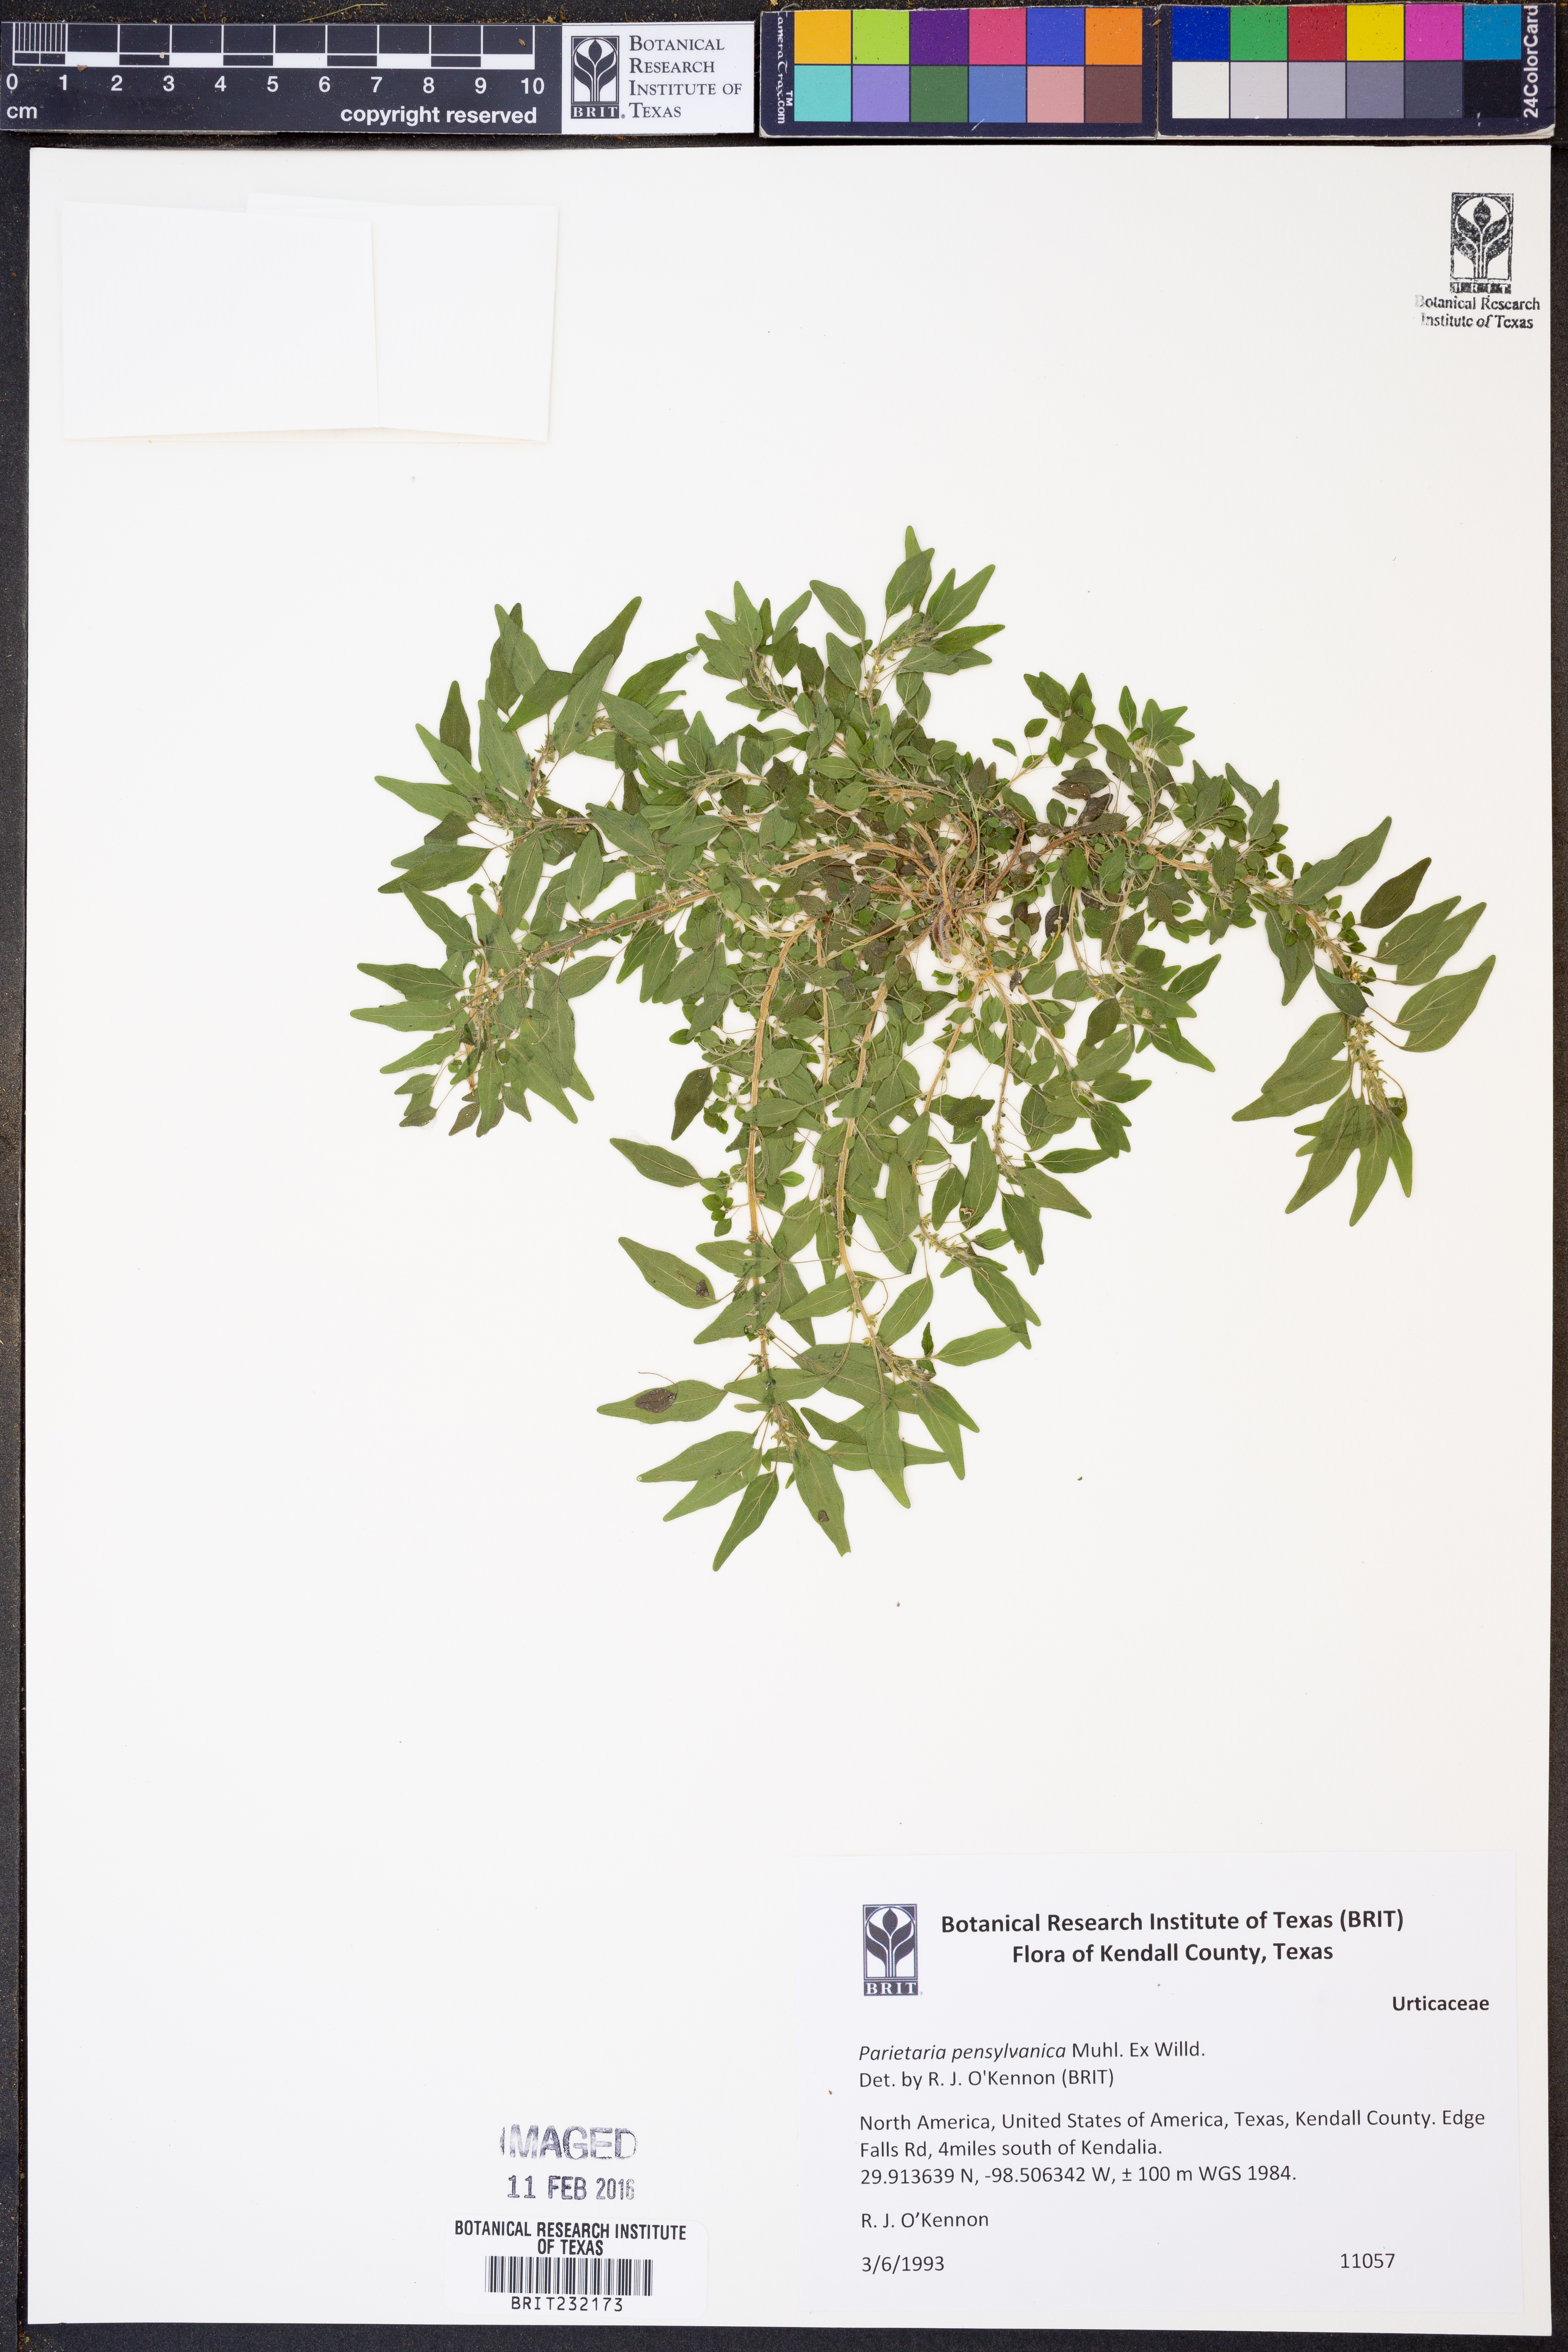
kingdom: Plantae
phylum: Tracheophyta
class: Magnoliopsida
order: Rosales
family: Urticaceae
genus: Parietaria
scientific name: Parietaria pensylvanica
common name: Pennsylvania pellitory
